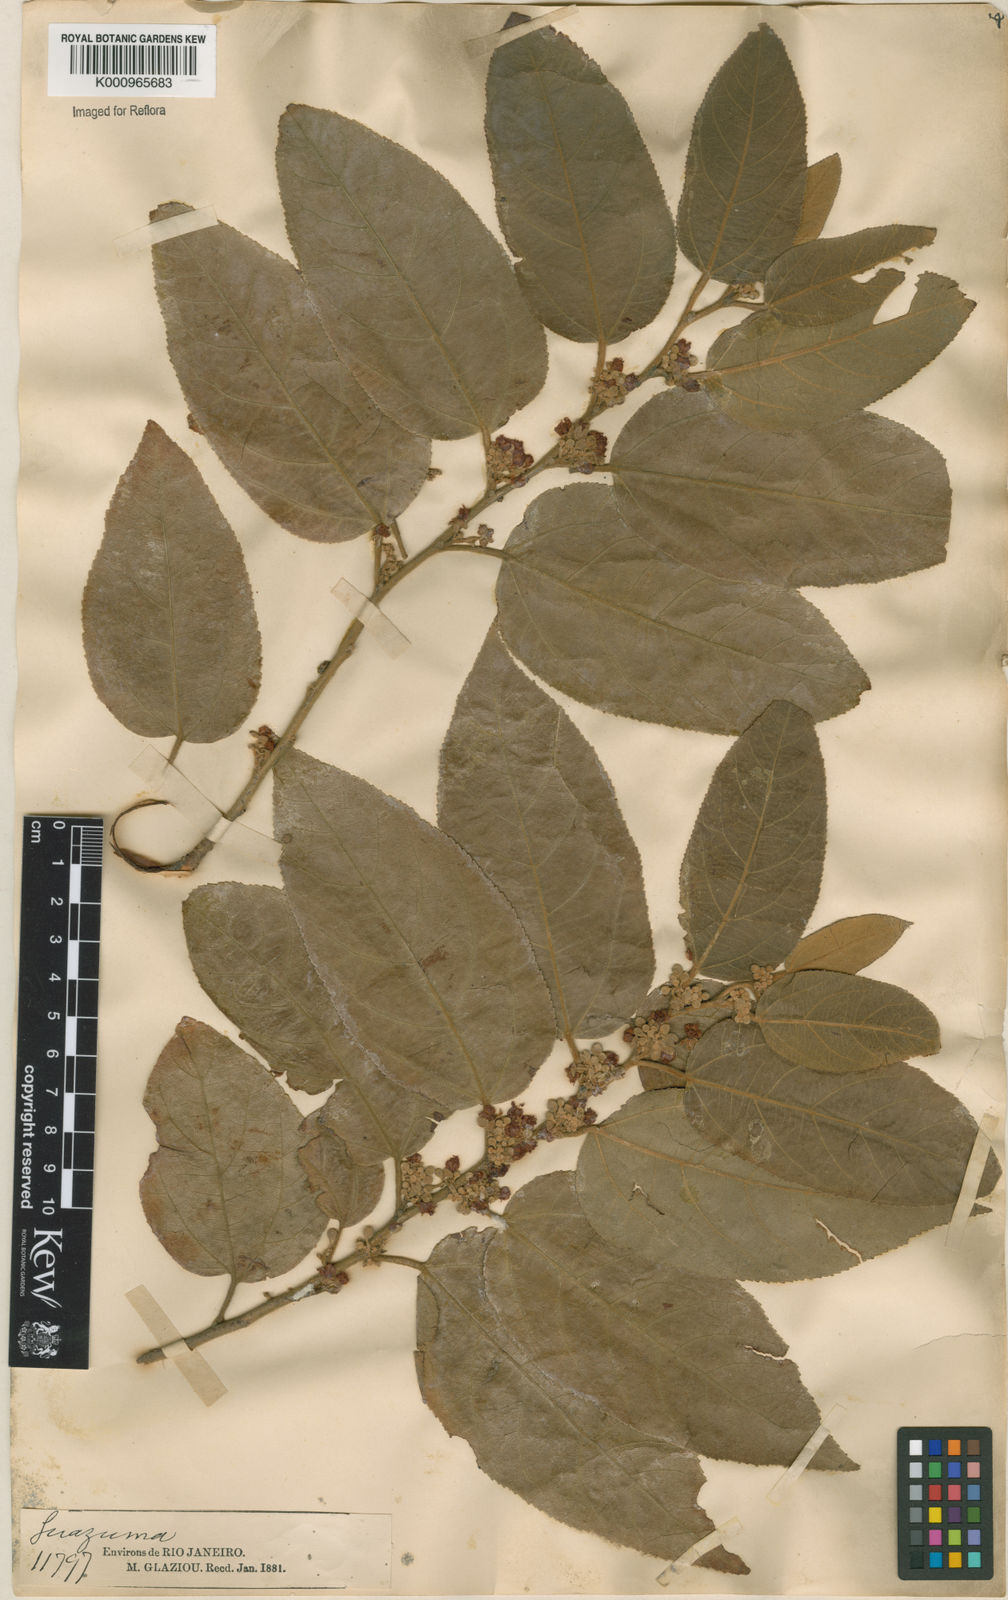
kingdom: Plantae
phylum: Tracheophyta
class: Magnoliopsida
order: Malvales
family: Malvaceae
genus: Guazuma
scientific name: Guazuma ulmifolia
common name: Bastard-cedar
